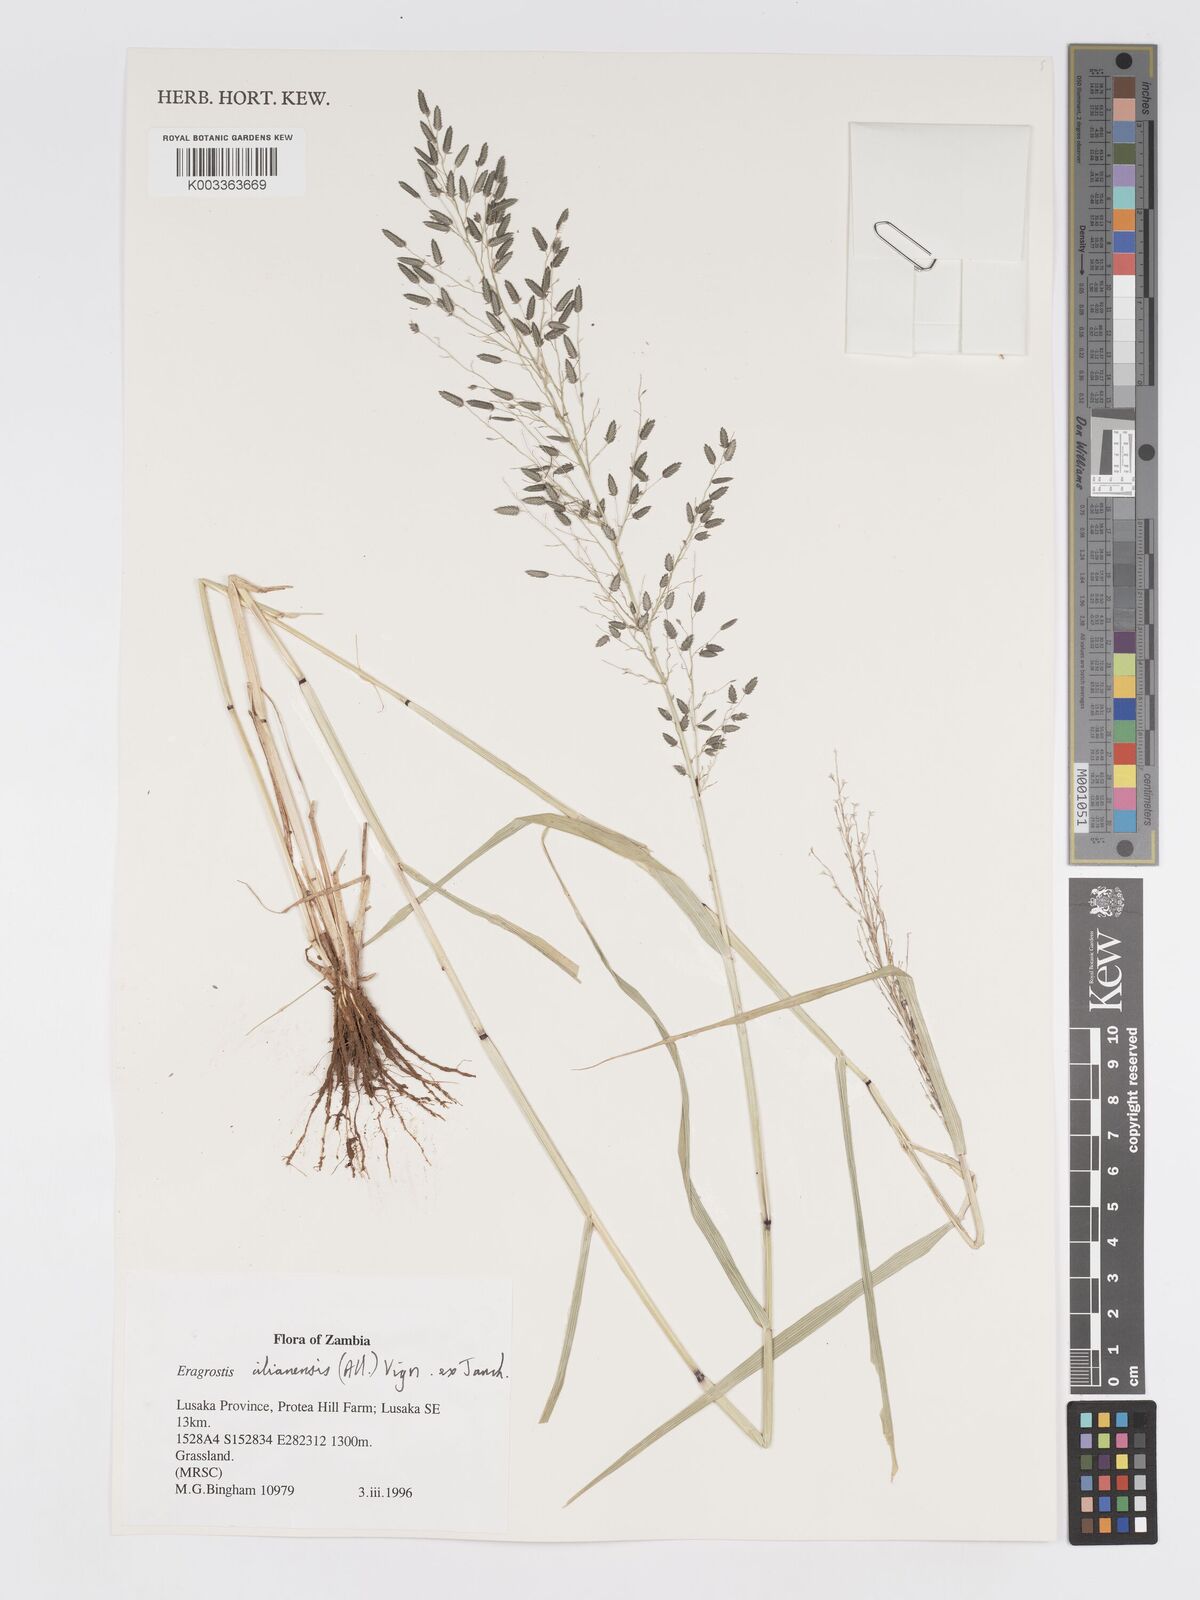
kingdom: Plantae
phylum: Tracheophyta
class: Liliopsida
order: Poales
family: Poaceae
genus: Eragrostis
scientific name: Eragrostis cilianensis
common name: Stinkgrass
